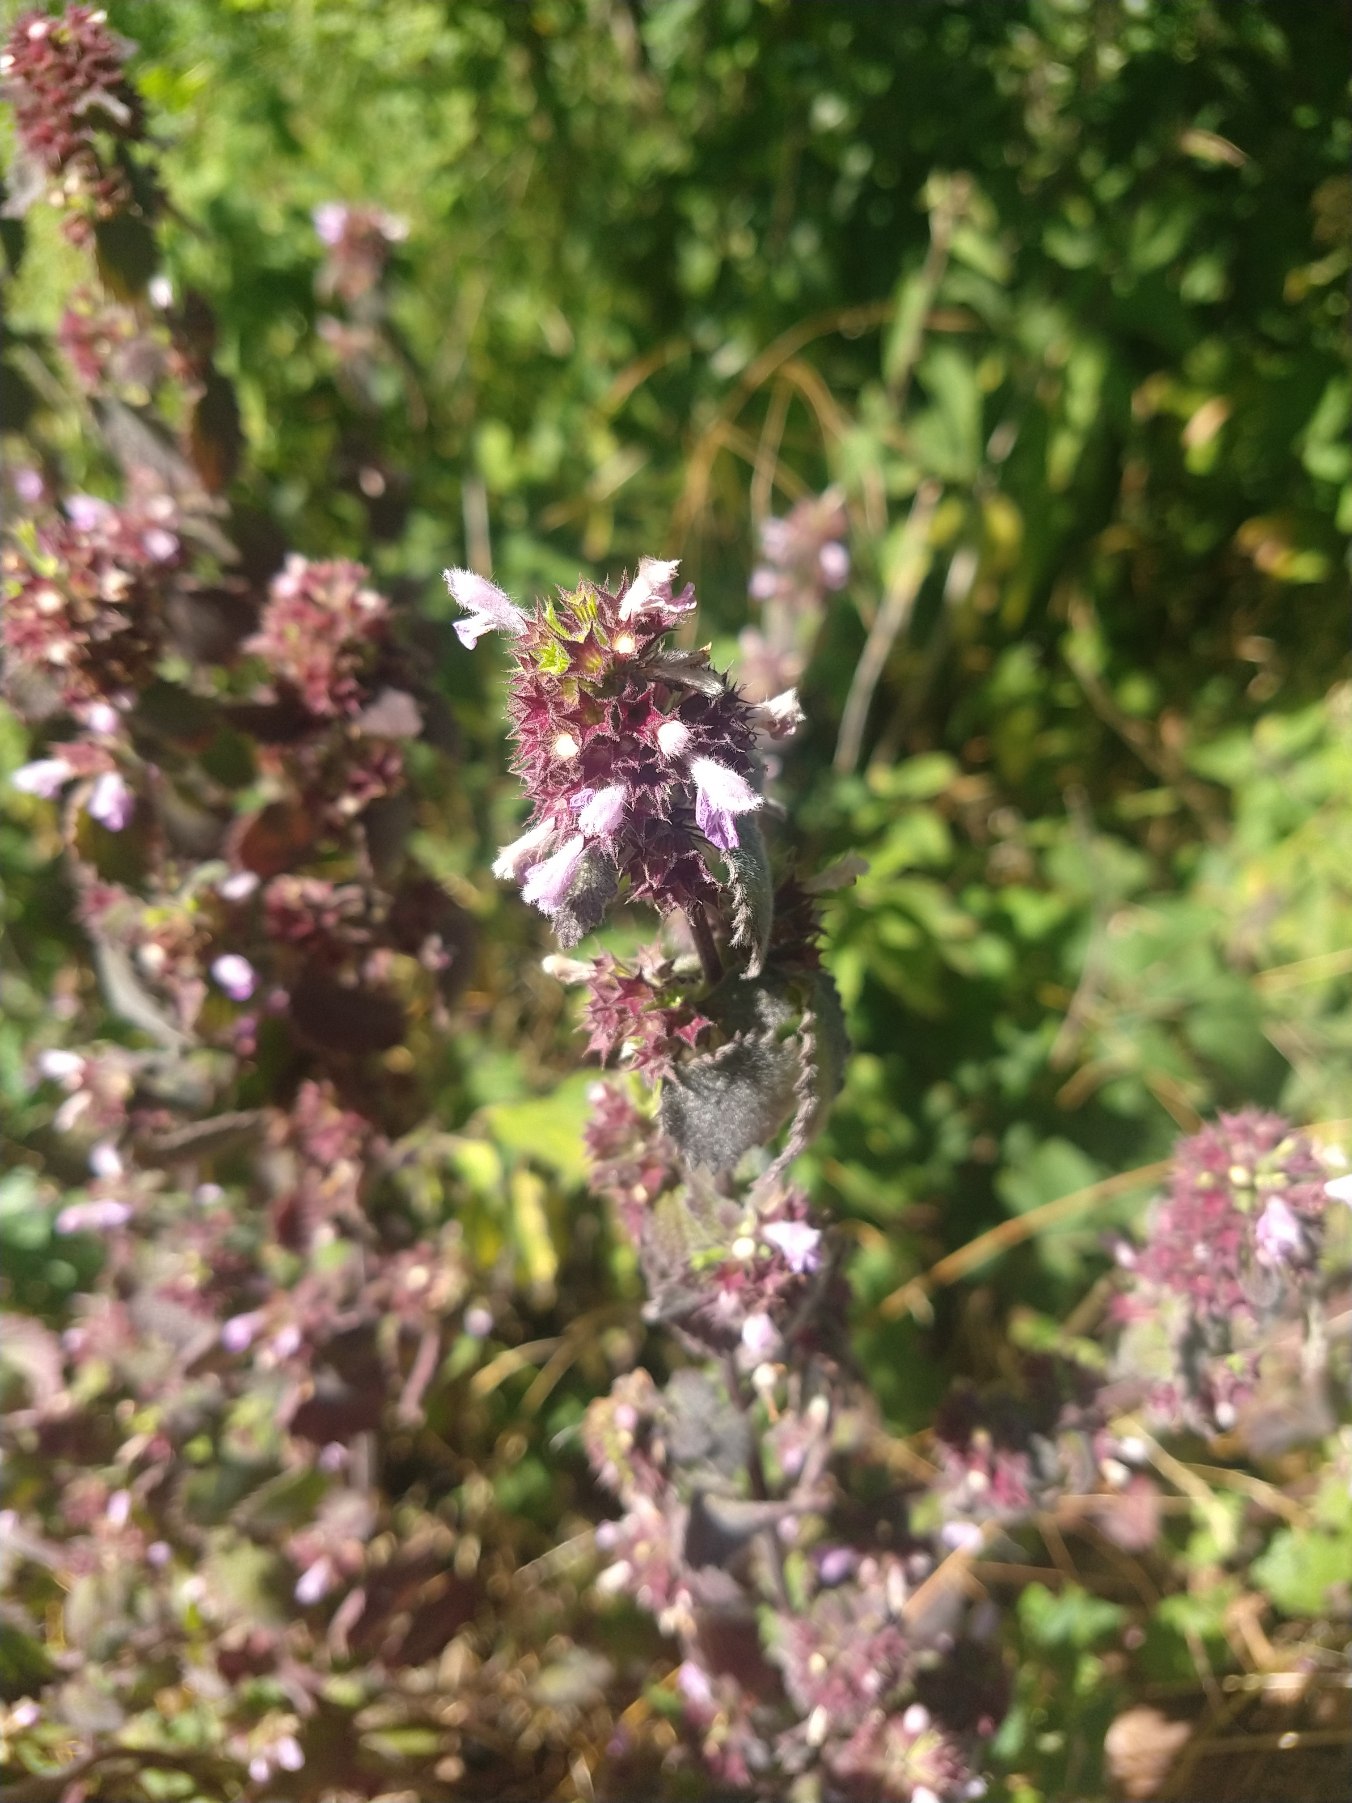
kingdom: Plantae
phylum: Tracheophyta
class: Magnoliopsida
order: Lamiales
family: Lamiaceae
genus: Ballota
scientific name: Ballota nigra
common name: Rød tandbæger
